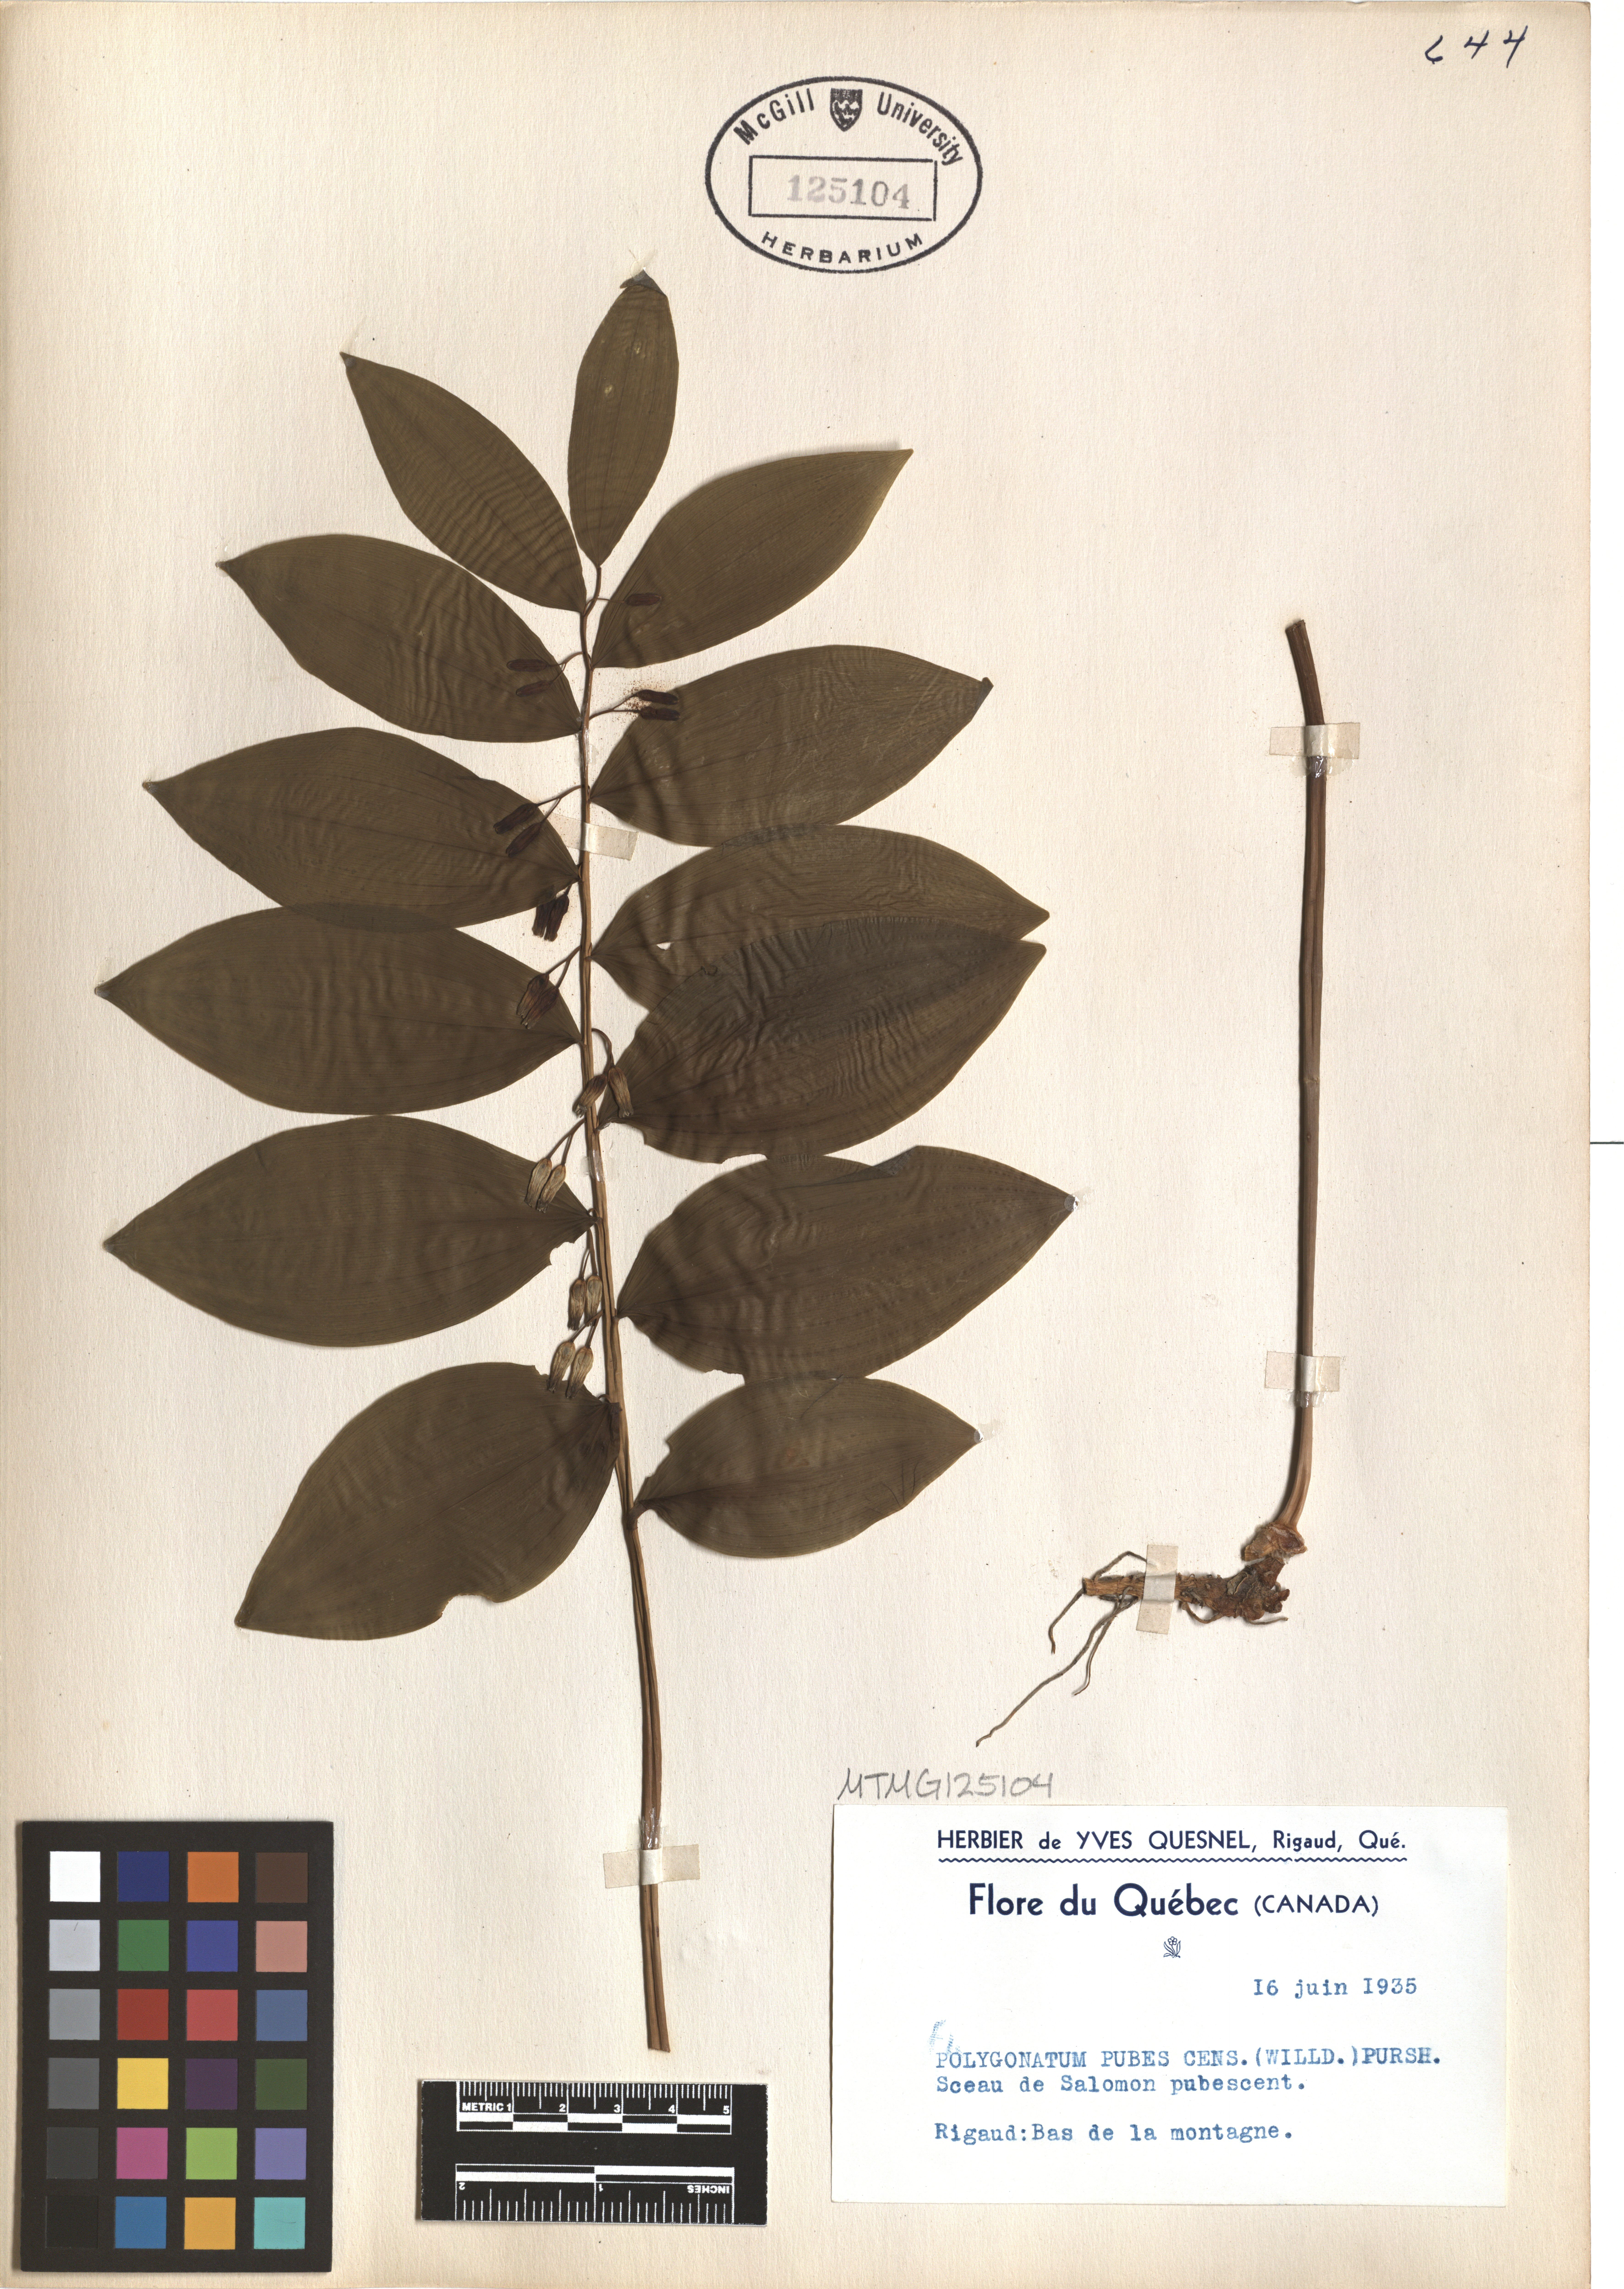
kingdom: Plantae
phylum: Tracheophyta
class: Liliopsida
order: Asparagales
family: Asparagaceae
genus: Polygonatum
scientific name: Polygonatum pubescens
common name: Downy solomon's seal
